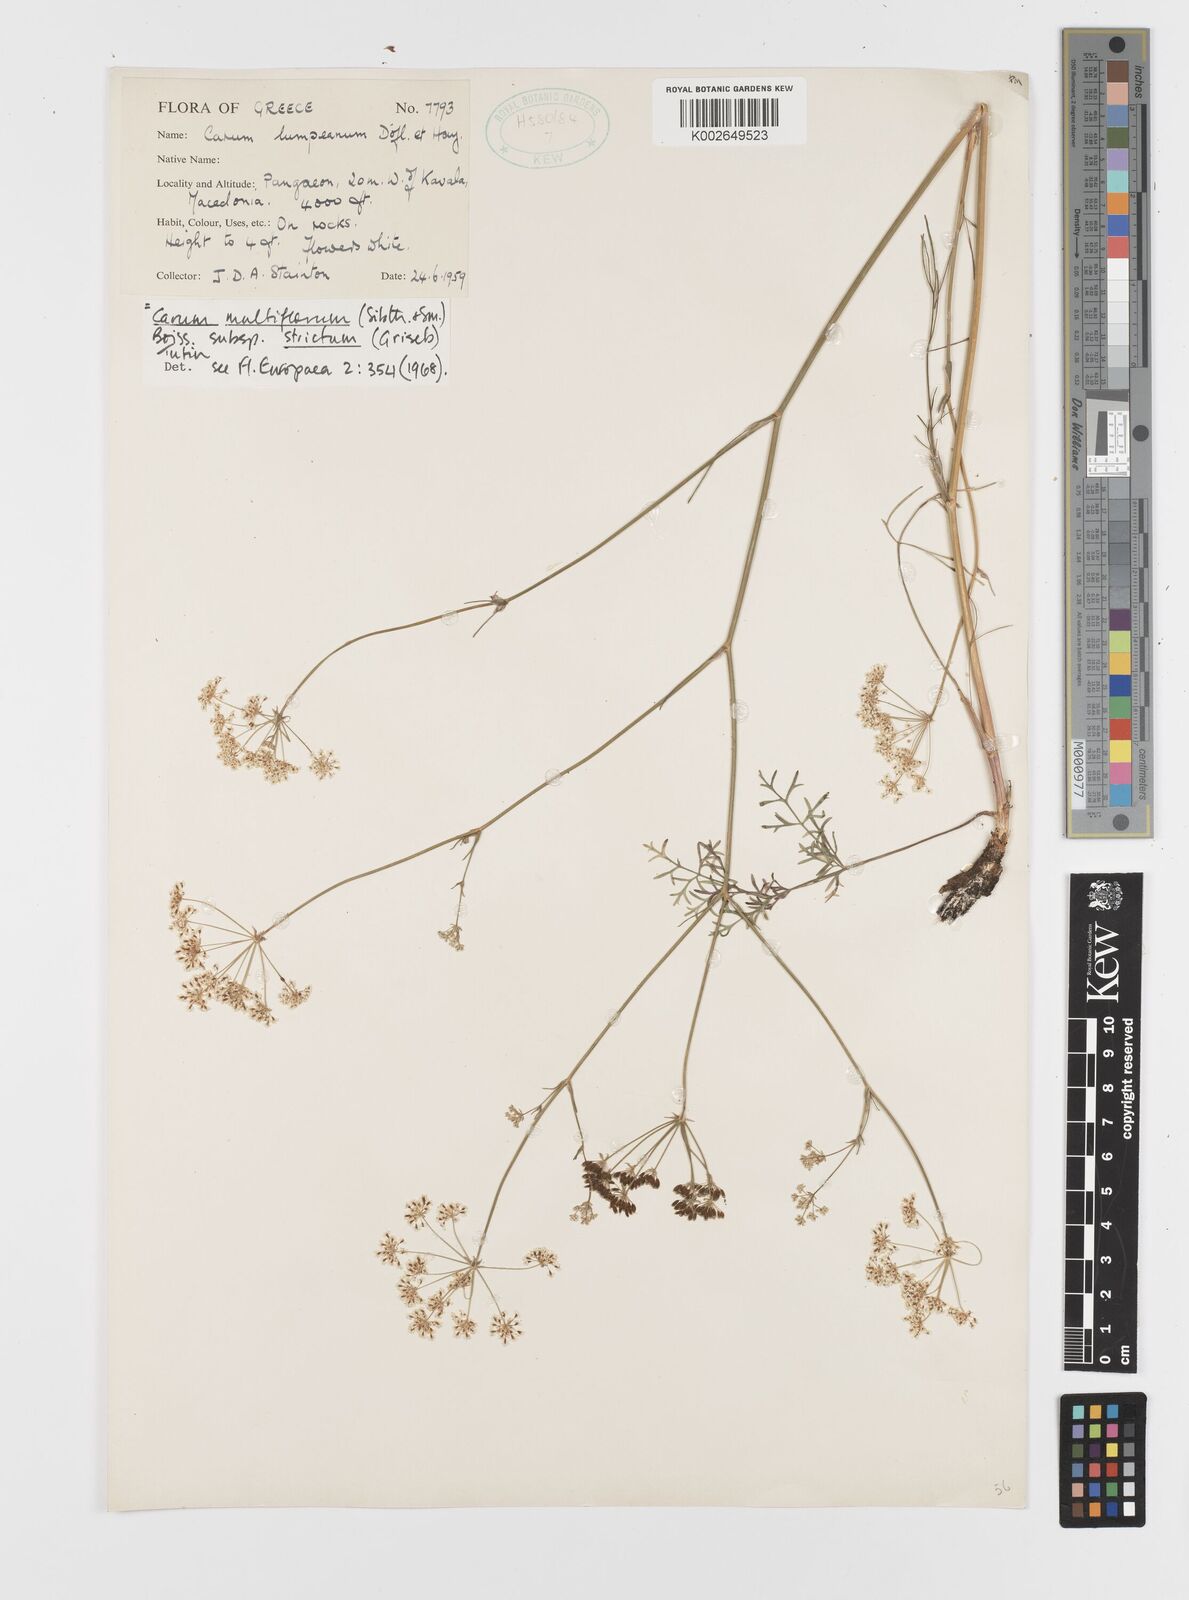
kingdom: Plantae
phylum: Tracheophyta
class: Magnoliopsida
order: Apiales
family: Apiaceae
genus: Hellenocarum
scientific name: Hellenocarum multiflorum
